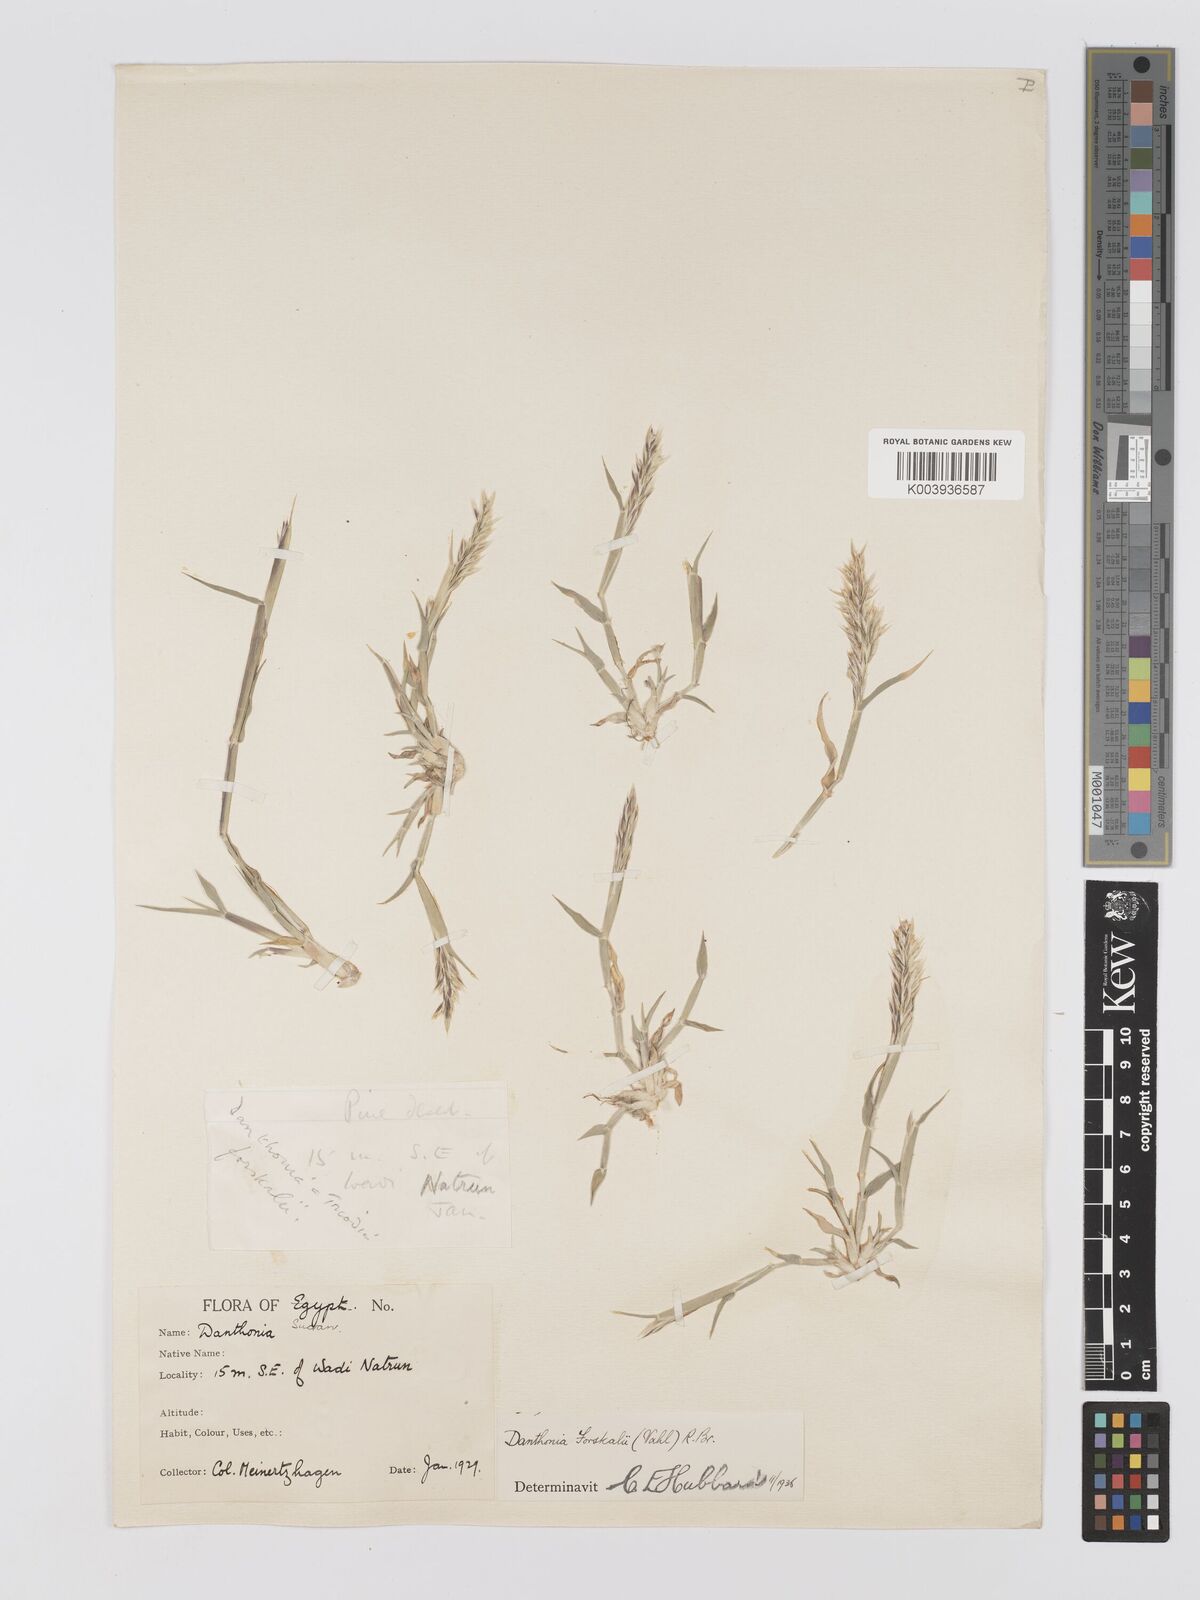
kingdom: Plantae
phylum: Tracheophyta
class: Liliopsida
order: Poales
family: Poaceae
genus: Centropodia
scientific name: Centropodia forskaolii
